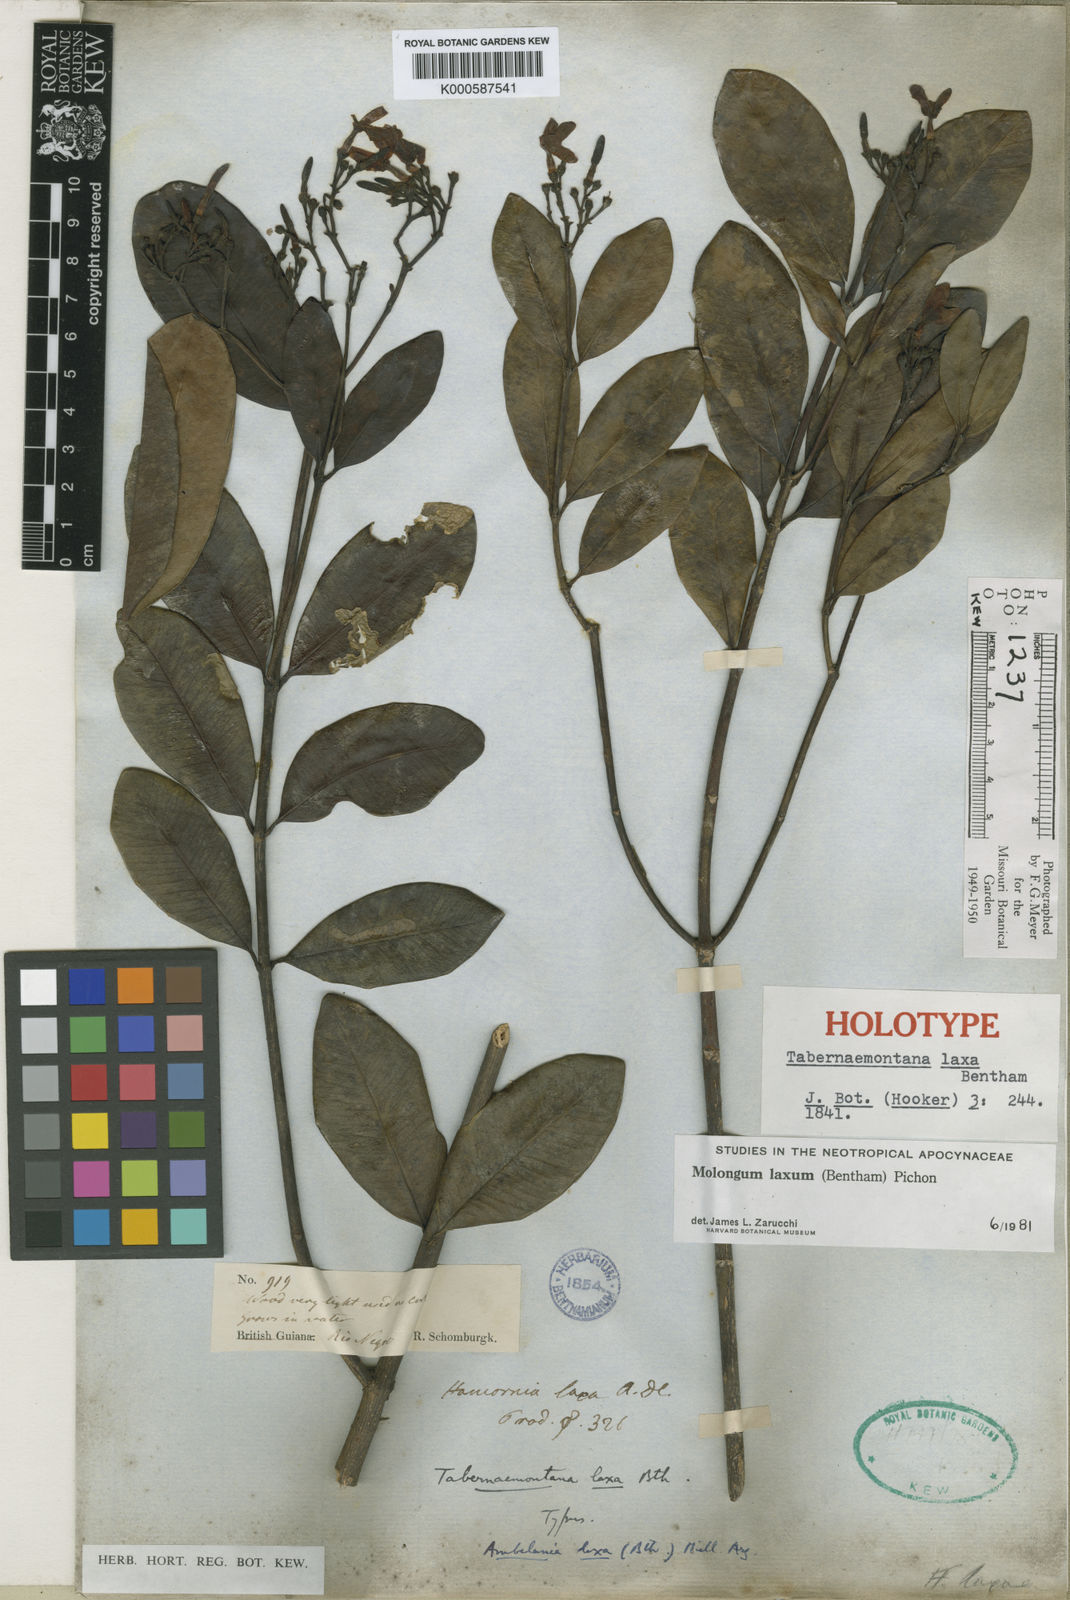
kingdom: Plantae
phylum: Tracheophyta
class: Magnoliopsida
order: Gentianales
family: Apocynaceae
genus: Molongum
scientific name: Molongum laxum
